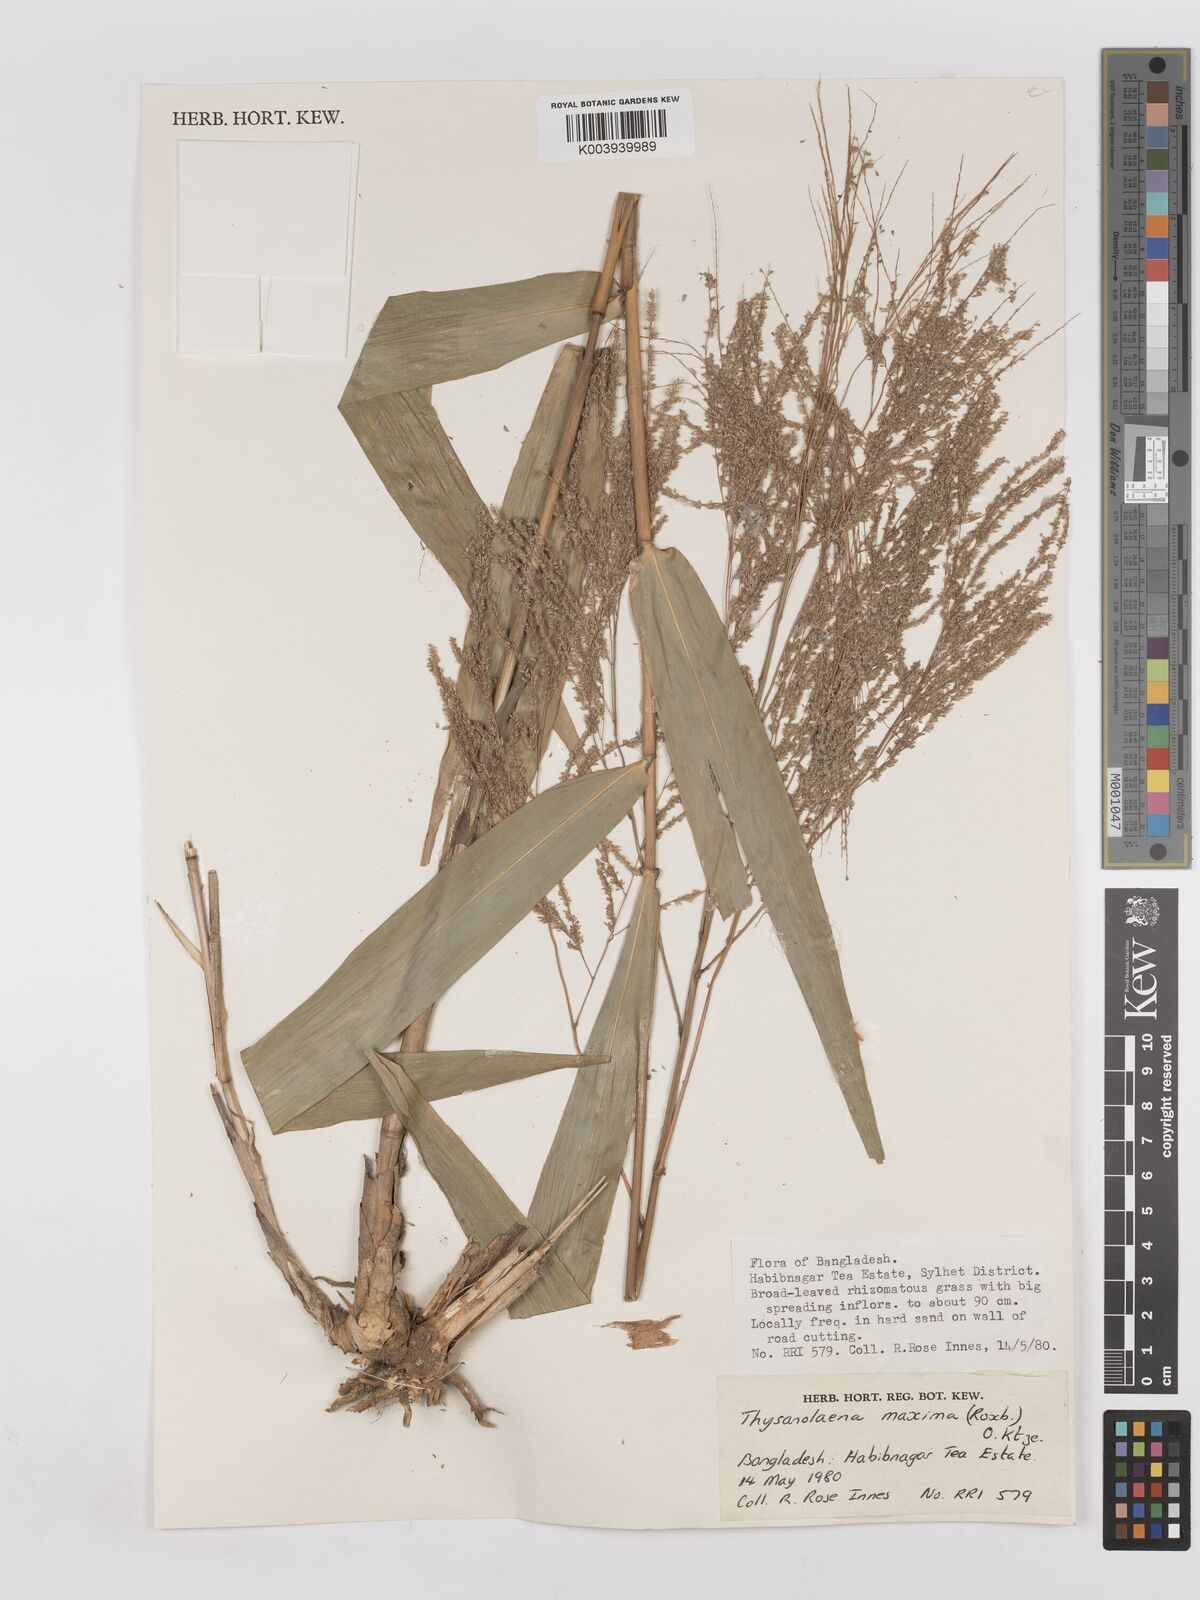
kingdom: Plantae
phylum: Tracheophyta
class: Liliopsida
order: Poales
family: Poaceae
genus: Thysanolaena
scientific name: Thysanolaena latifolia
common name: Tiger grass
